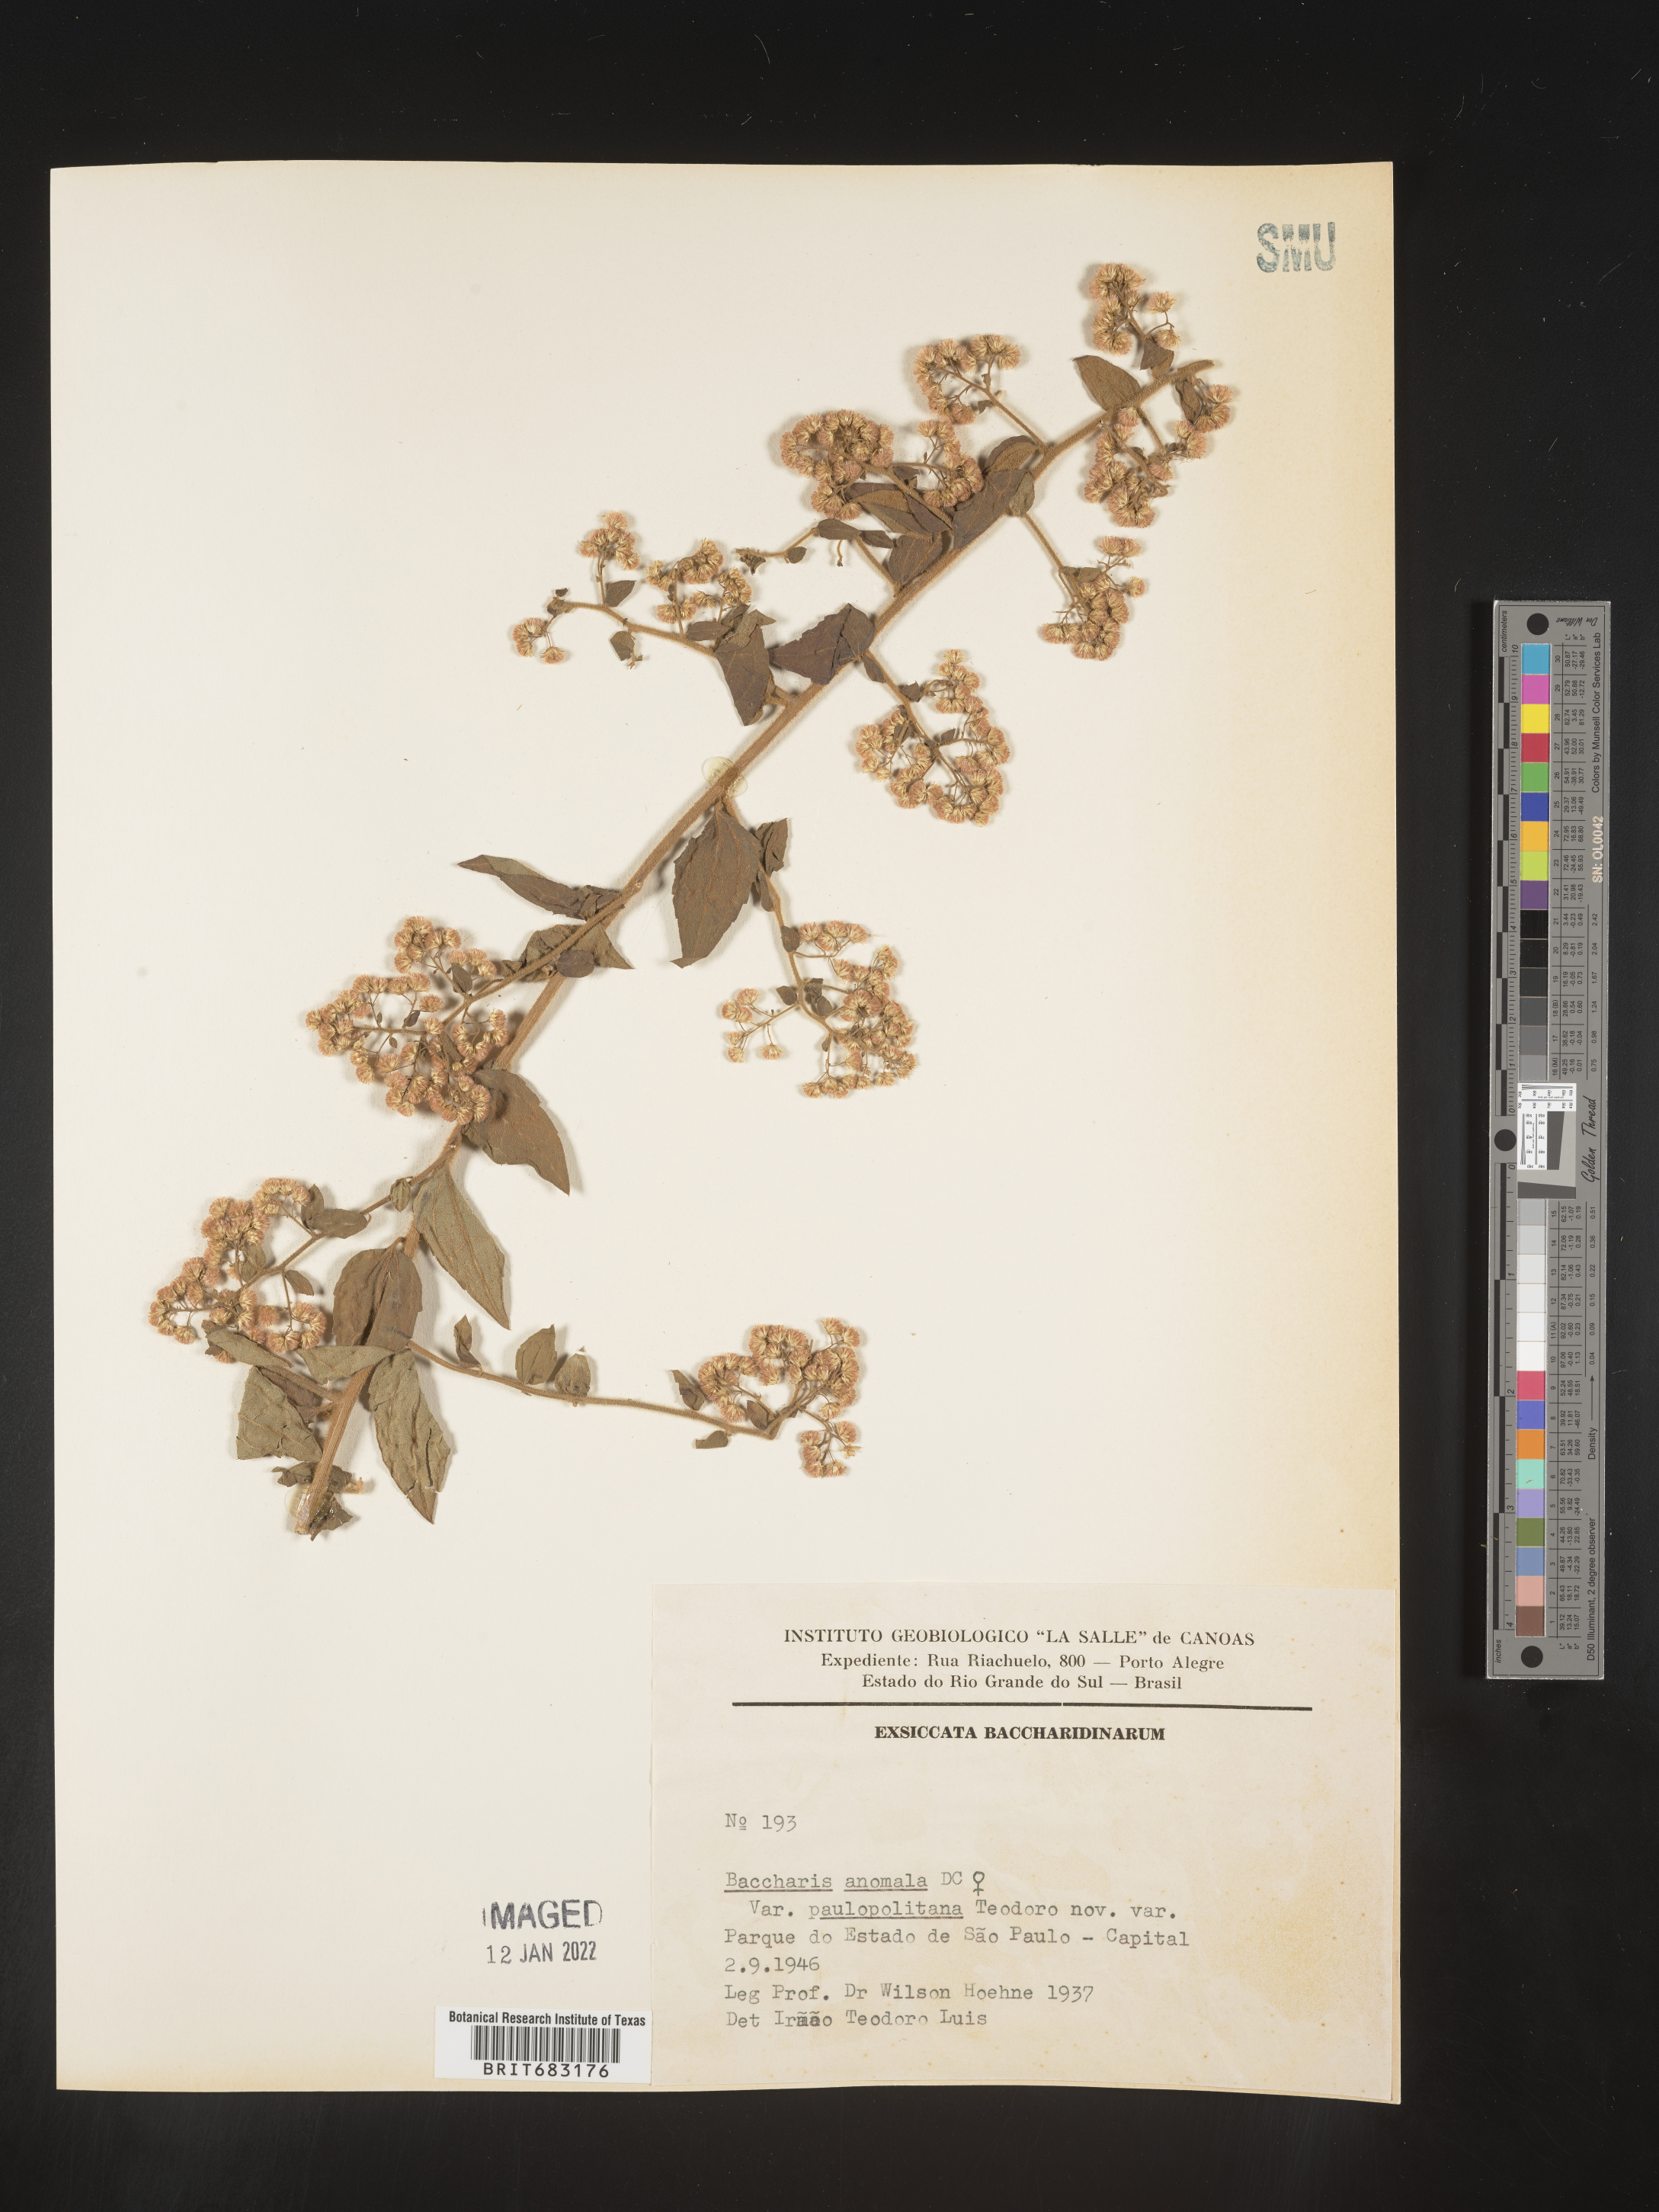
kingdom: Plantae
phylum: Tracheophyta
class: Magnoliopsida
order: Asterales
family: Asteraceae
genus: Baccharis
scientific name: Baccharis
